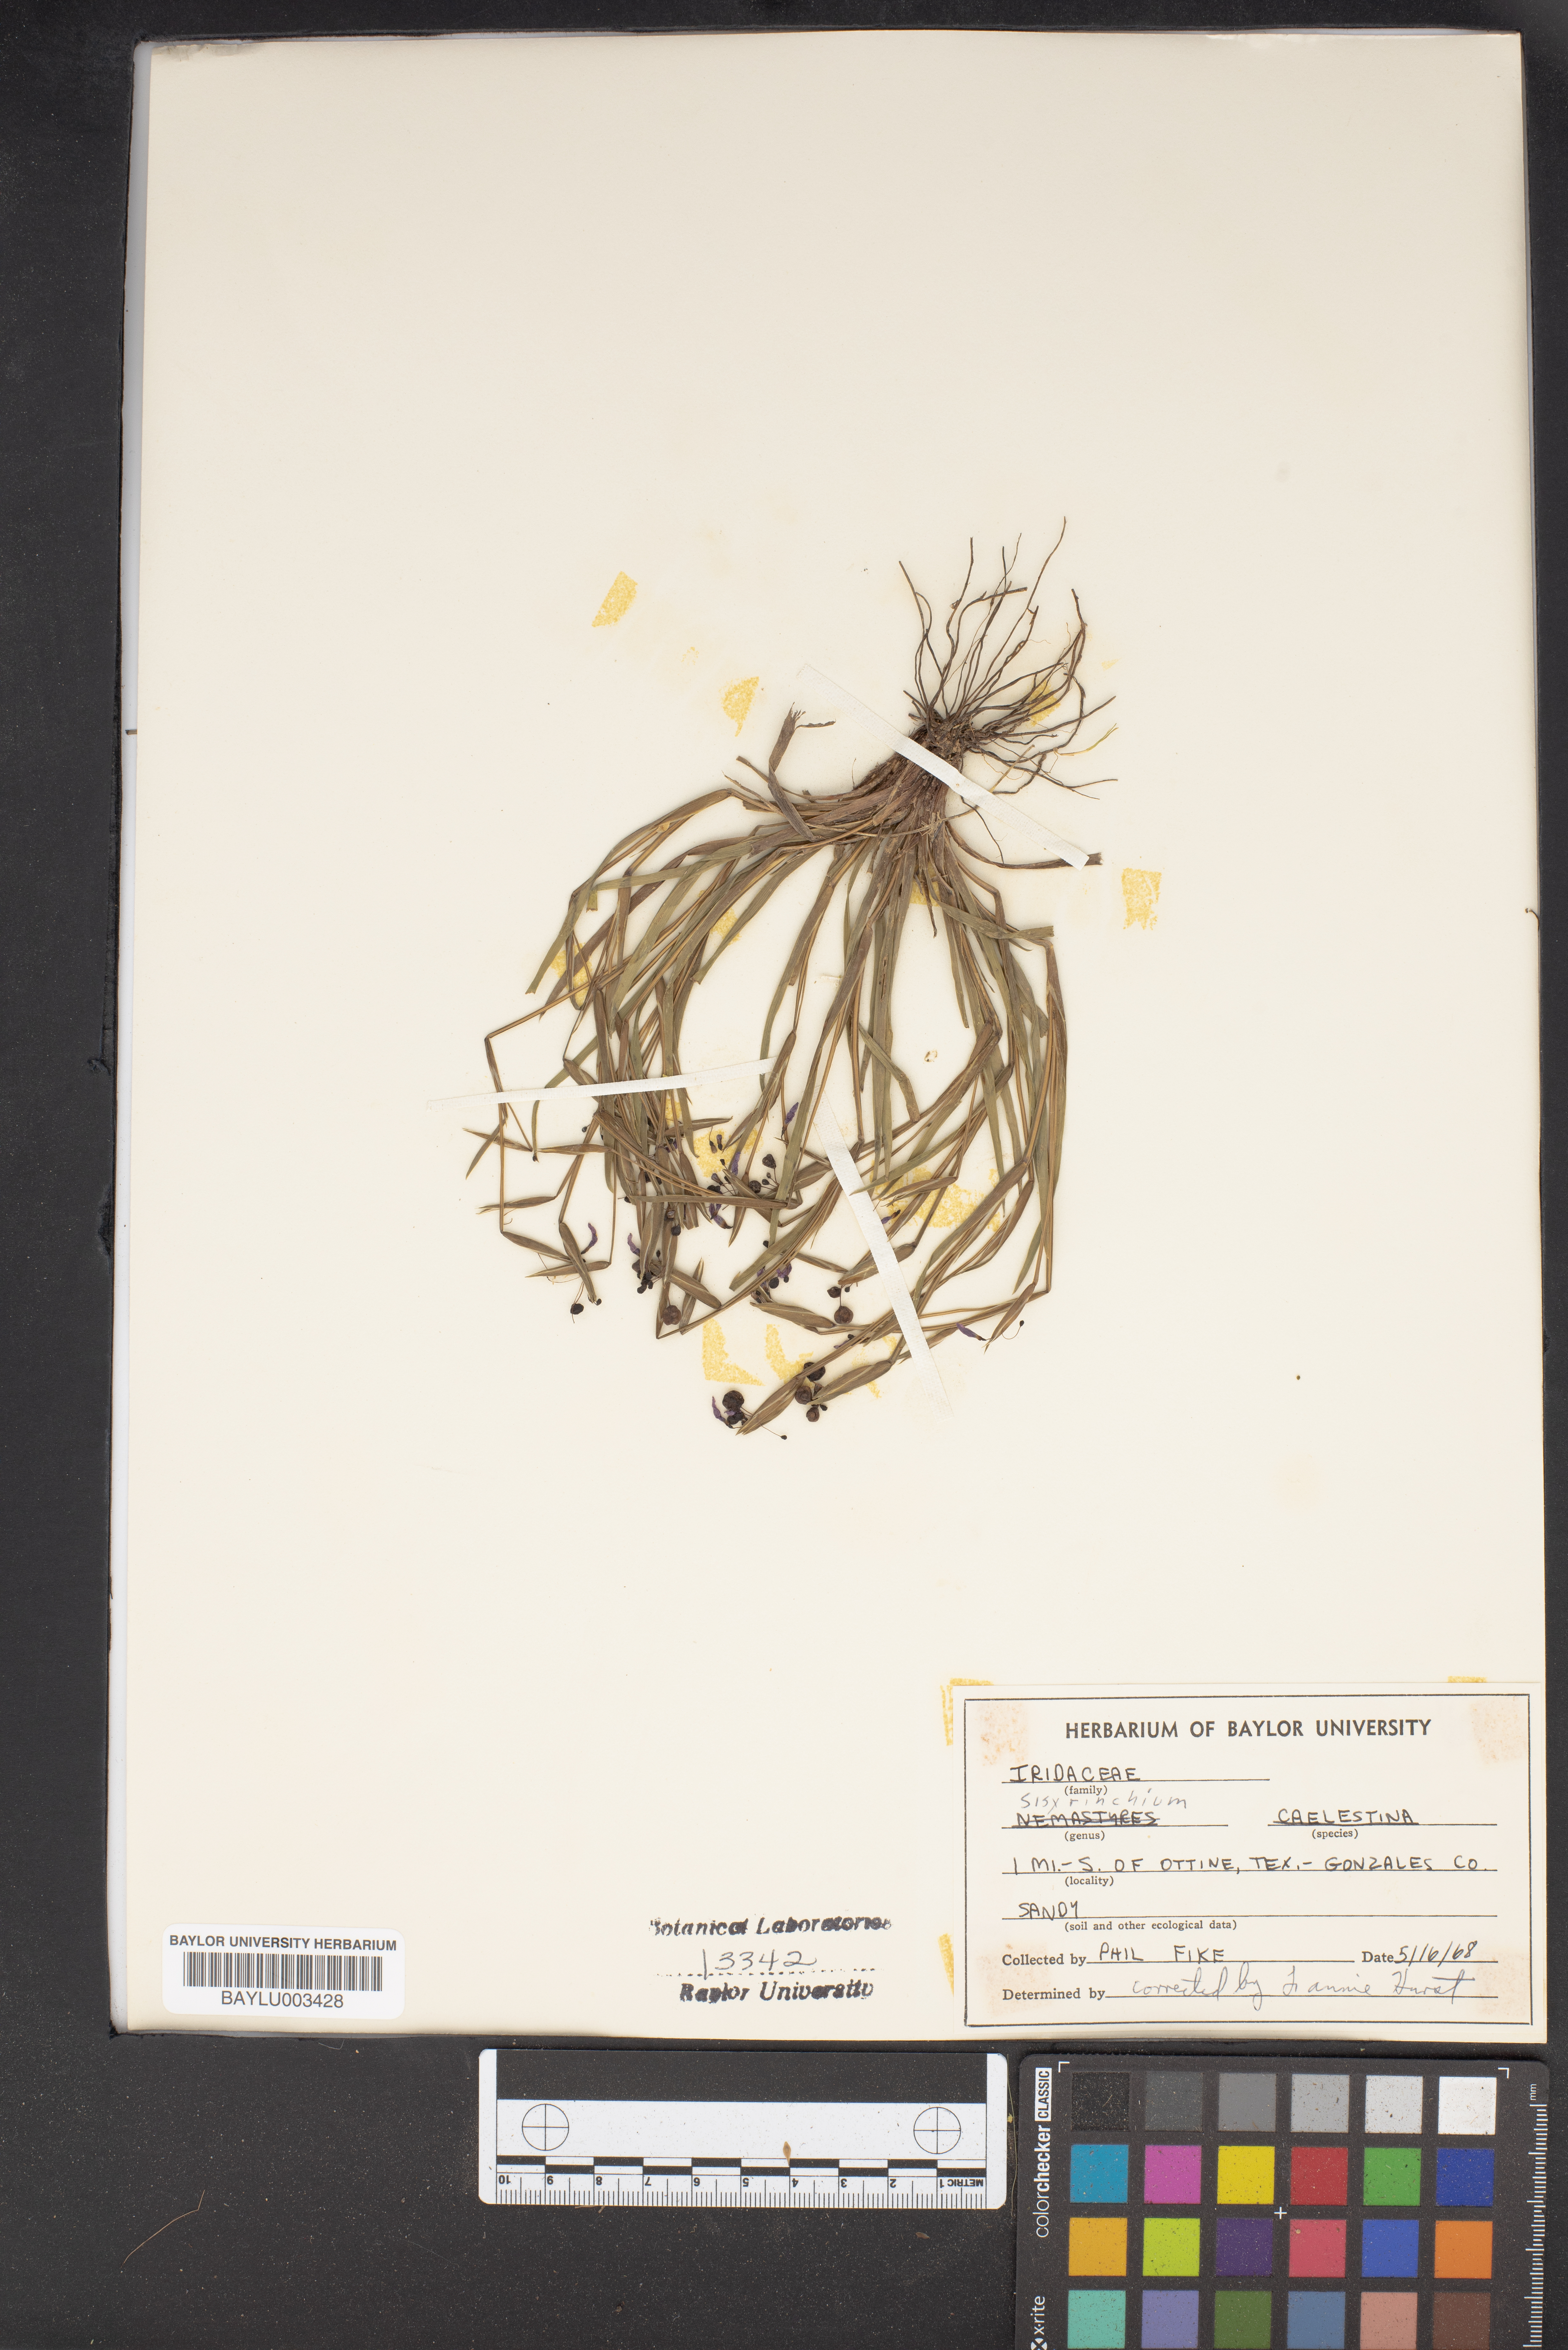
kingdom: Plantae
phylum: Tracheophyta
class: Liliopsida
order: Asparagales
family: Iridaceae
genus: Sisyrinchium
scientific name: Sisyrinchium
